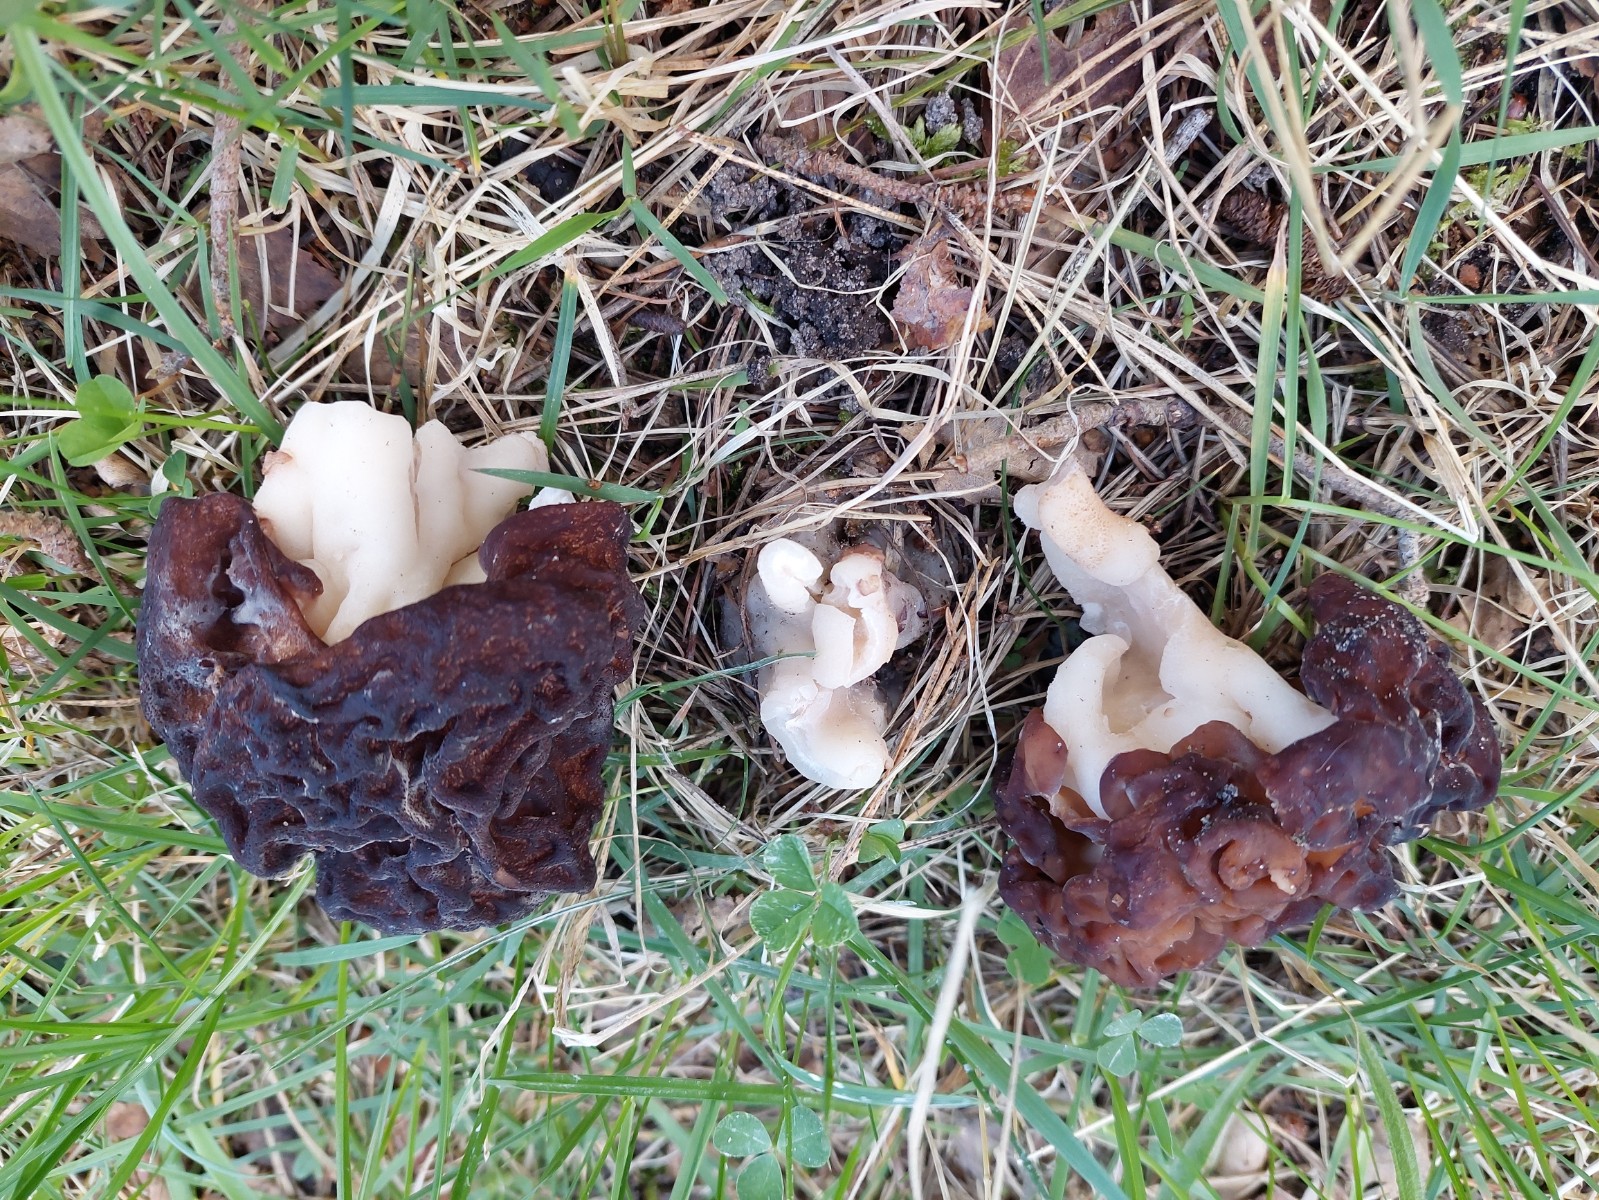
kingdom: Fungi
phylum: Ascomycota
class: Pezizomycetes
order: Pezizales
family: Discinaceae
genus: Gyromitra
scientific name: Gyromitra esculenta
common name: ægte stenmorkel
